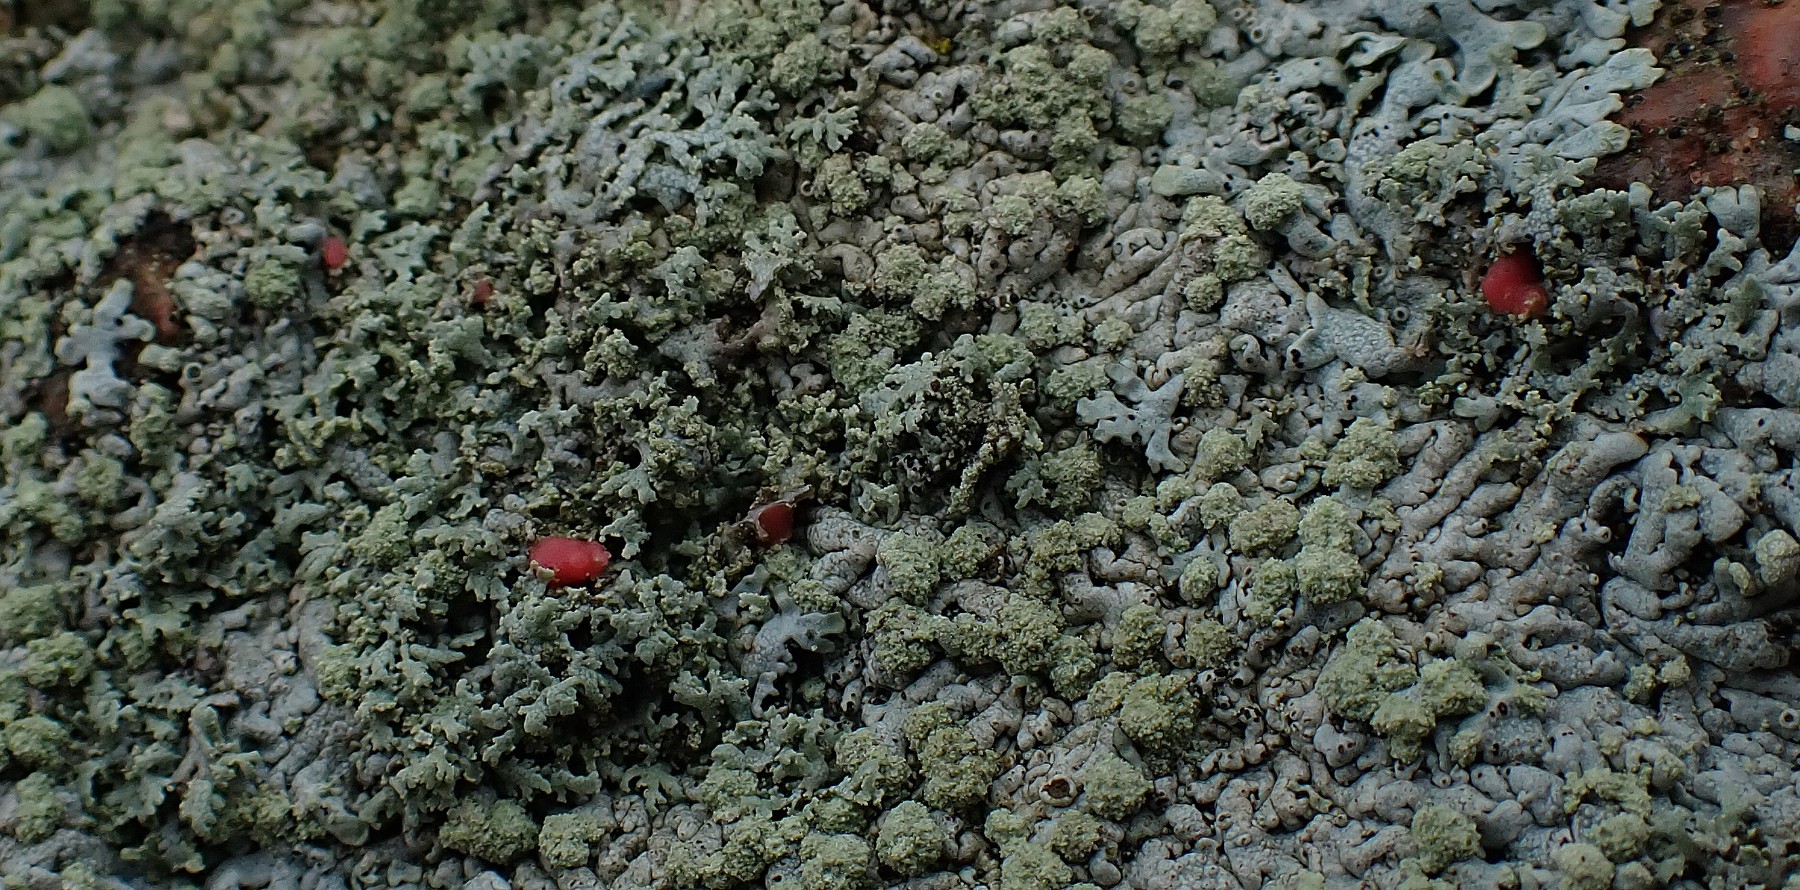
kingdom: Fungi
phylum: Ascomycota
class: Sordariomycetes
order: Hypocreales
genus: Illosporiopsis
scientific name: Illosporiopsis christiansenii
